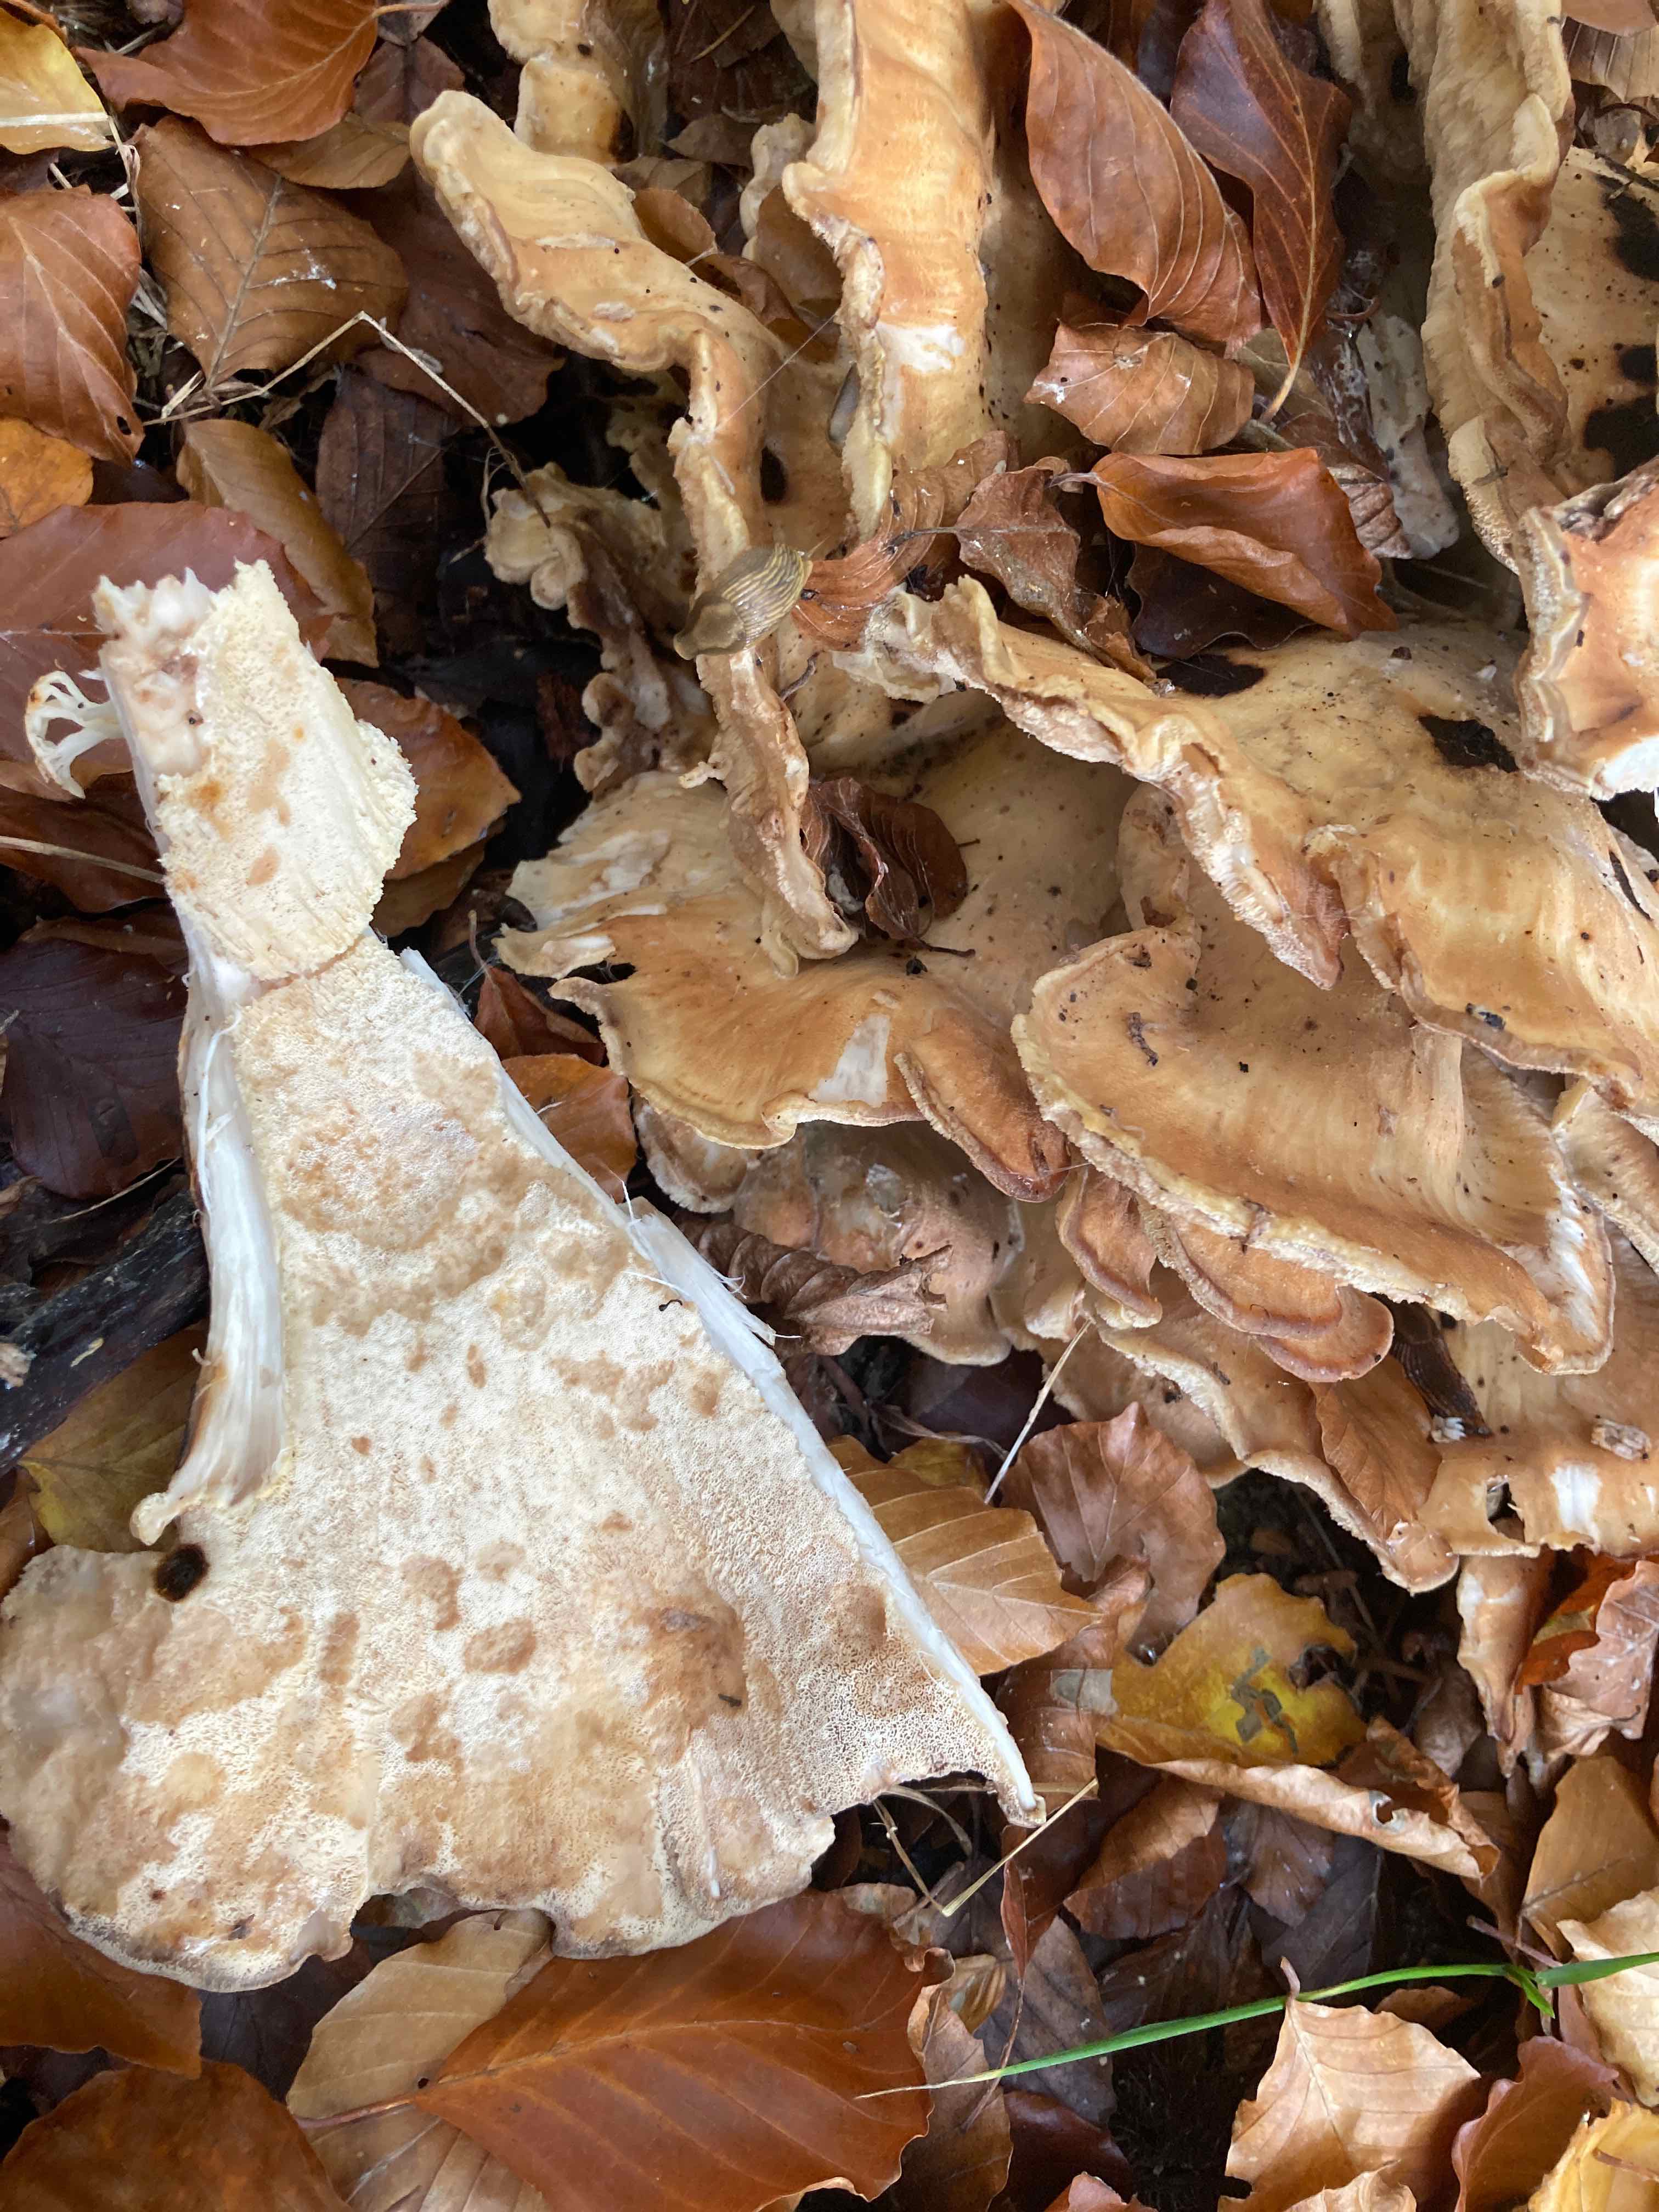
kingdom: Fungi
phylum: Basidiomycota
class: Agaricomycetes
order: Polyporales
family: Meripilaceae
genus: Meripilus
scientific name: Meripilus giganteus
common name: kæmpeporesvamp
